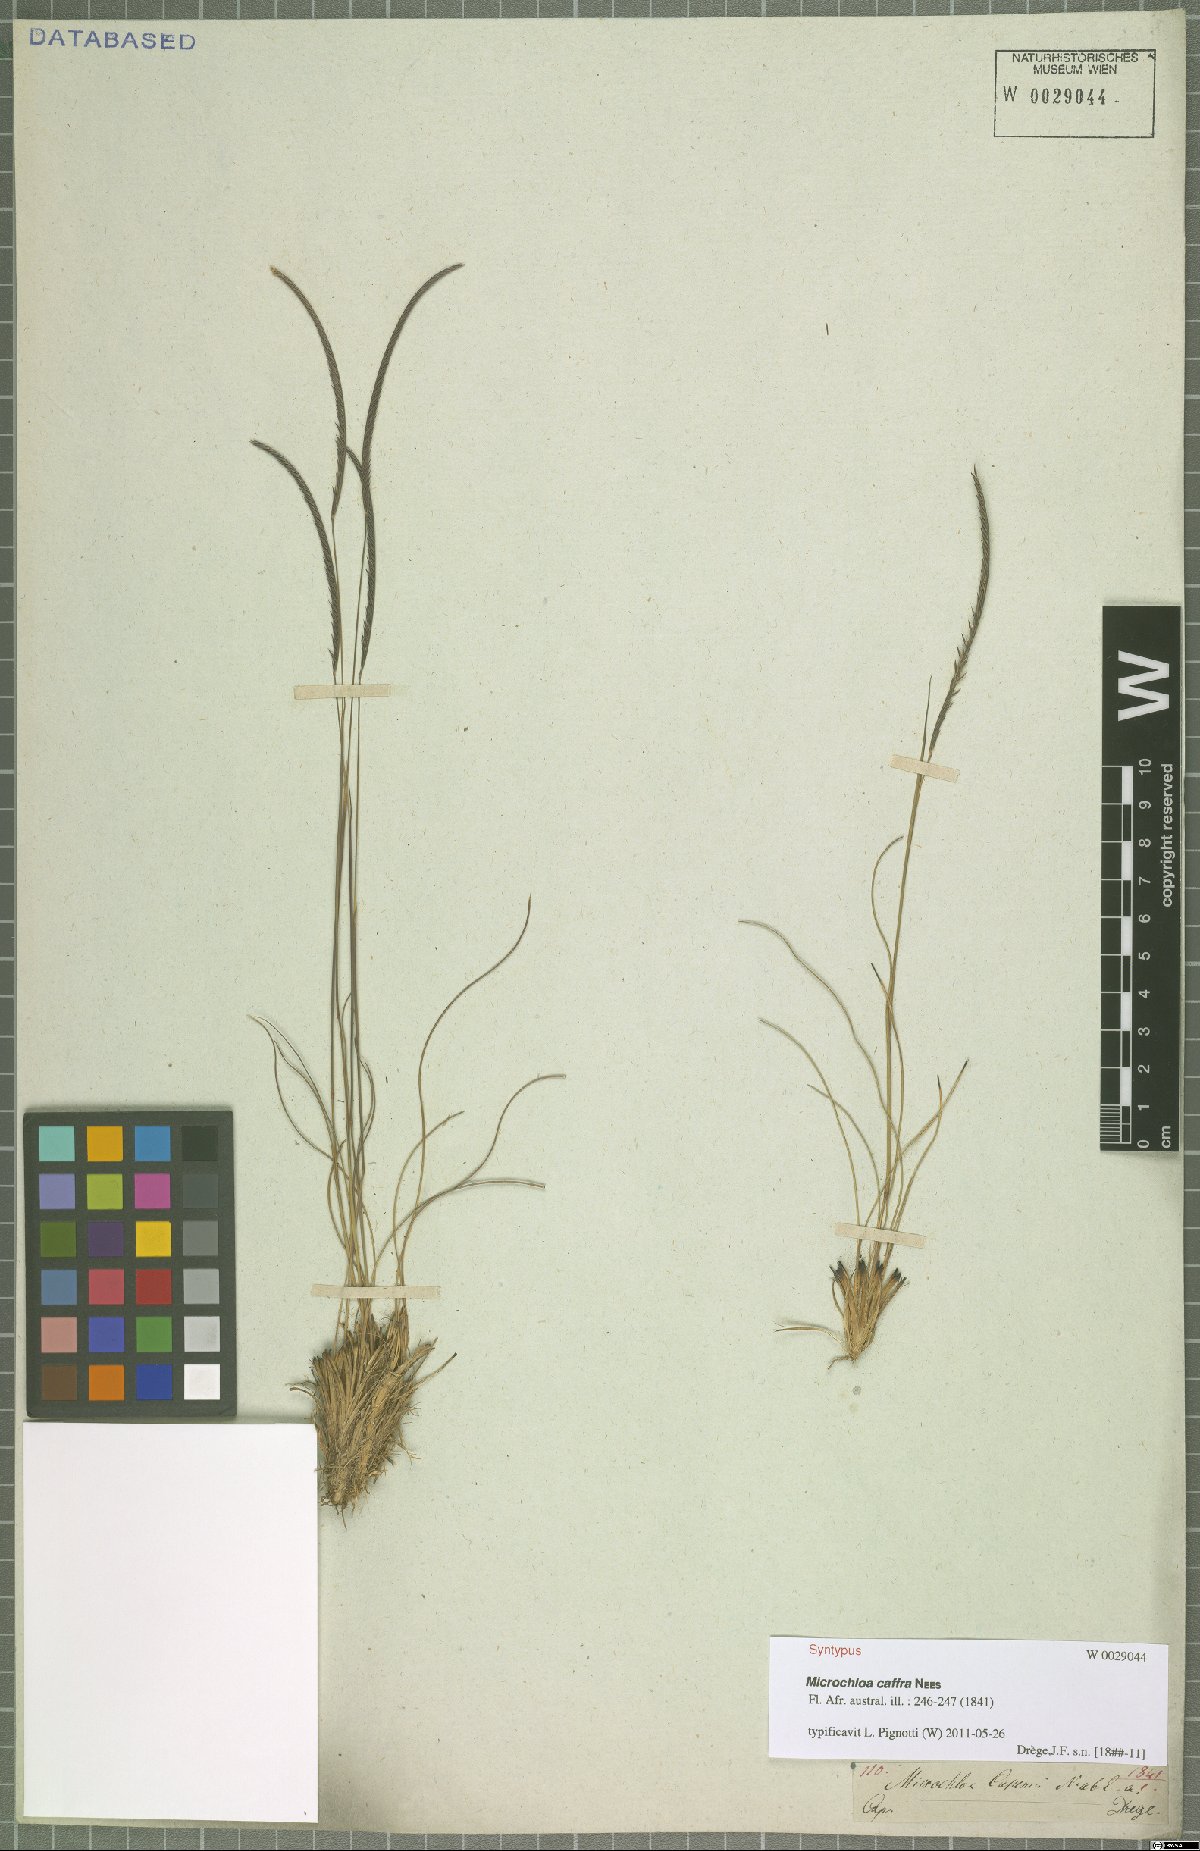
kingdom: Plantae
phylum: Tracheophyta
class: Liliopsida
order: Poales
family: Poaceae
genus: Microchloa
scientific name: Microchloa caffra
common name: Pincushion grass
